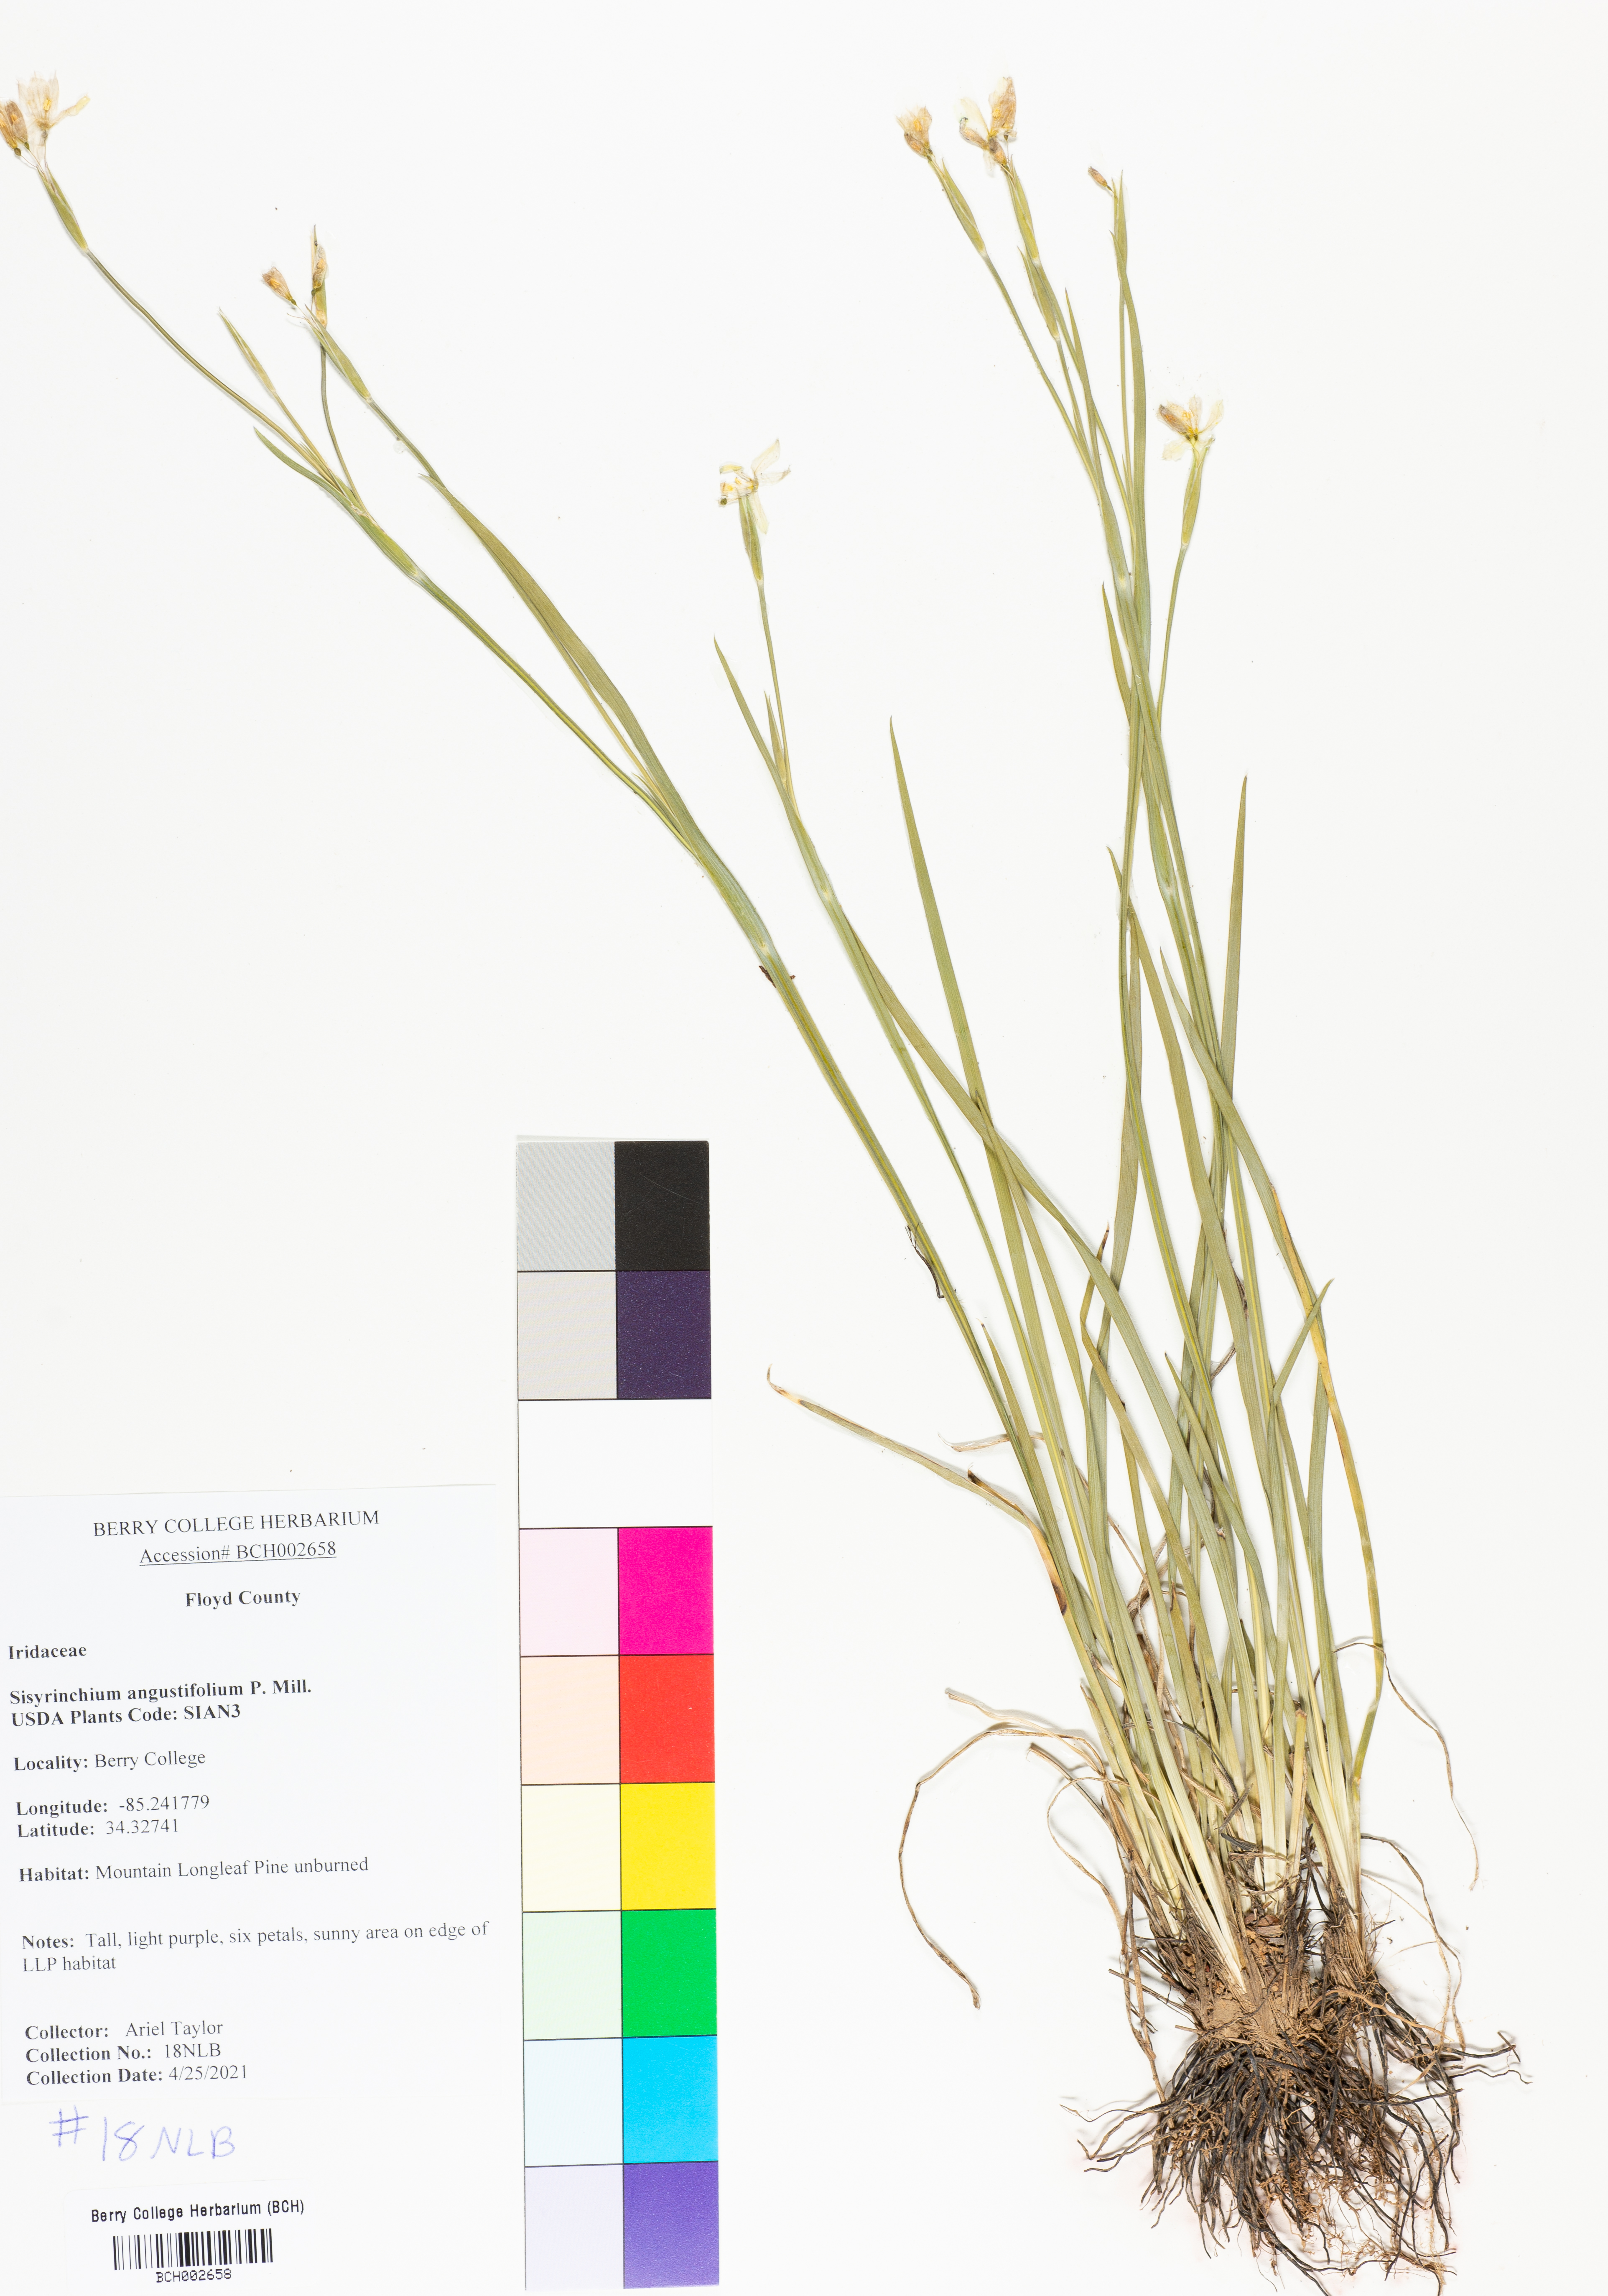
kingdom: Plantae
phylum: Tracheophyta
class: Liliopsida
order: Asparagales
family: Iridaceae
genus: Sisyrinchium
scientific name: Sisyrinchium angustifolium
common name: Narrow-leaf blue-eyed-grass
